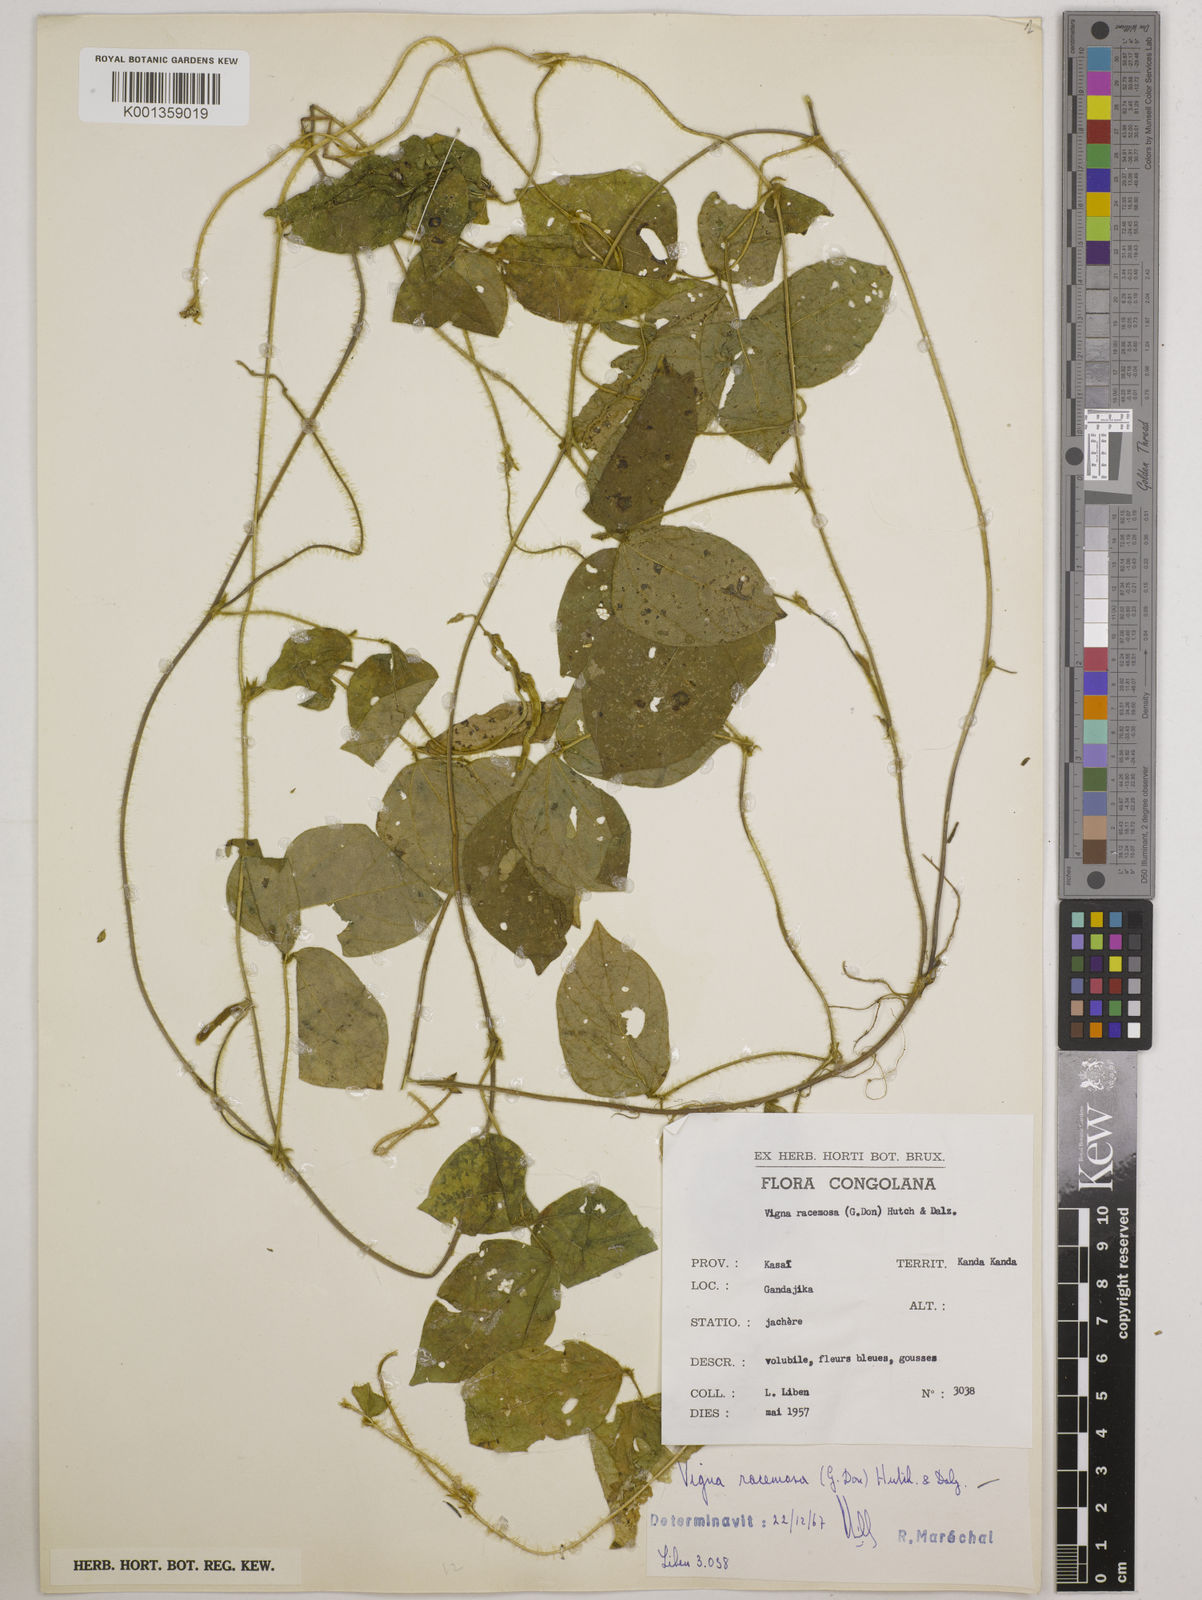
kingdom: Plantae
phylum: Tracheophyta
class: Magnoliopsida
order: Fabales
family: Fabaceae
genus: Vigna
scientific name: Vigna racemosa
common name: Beans not eaten
